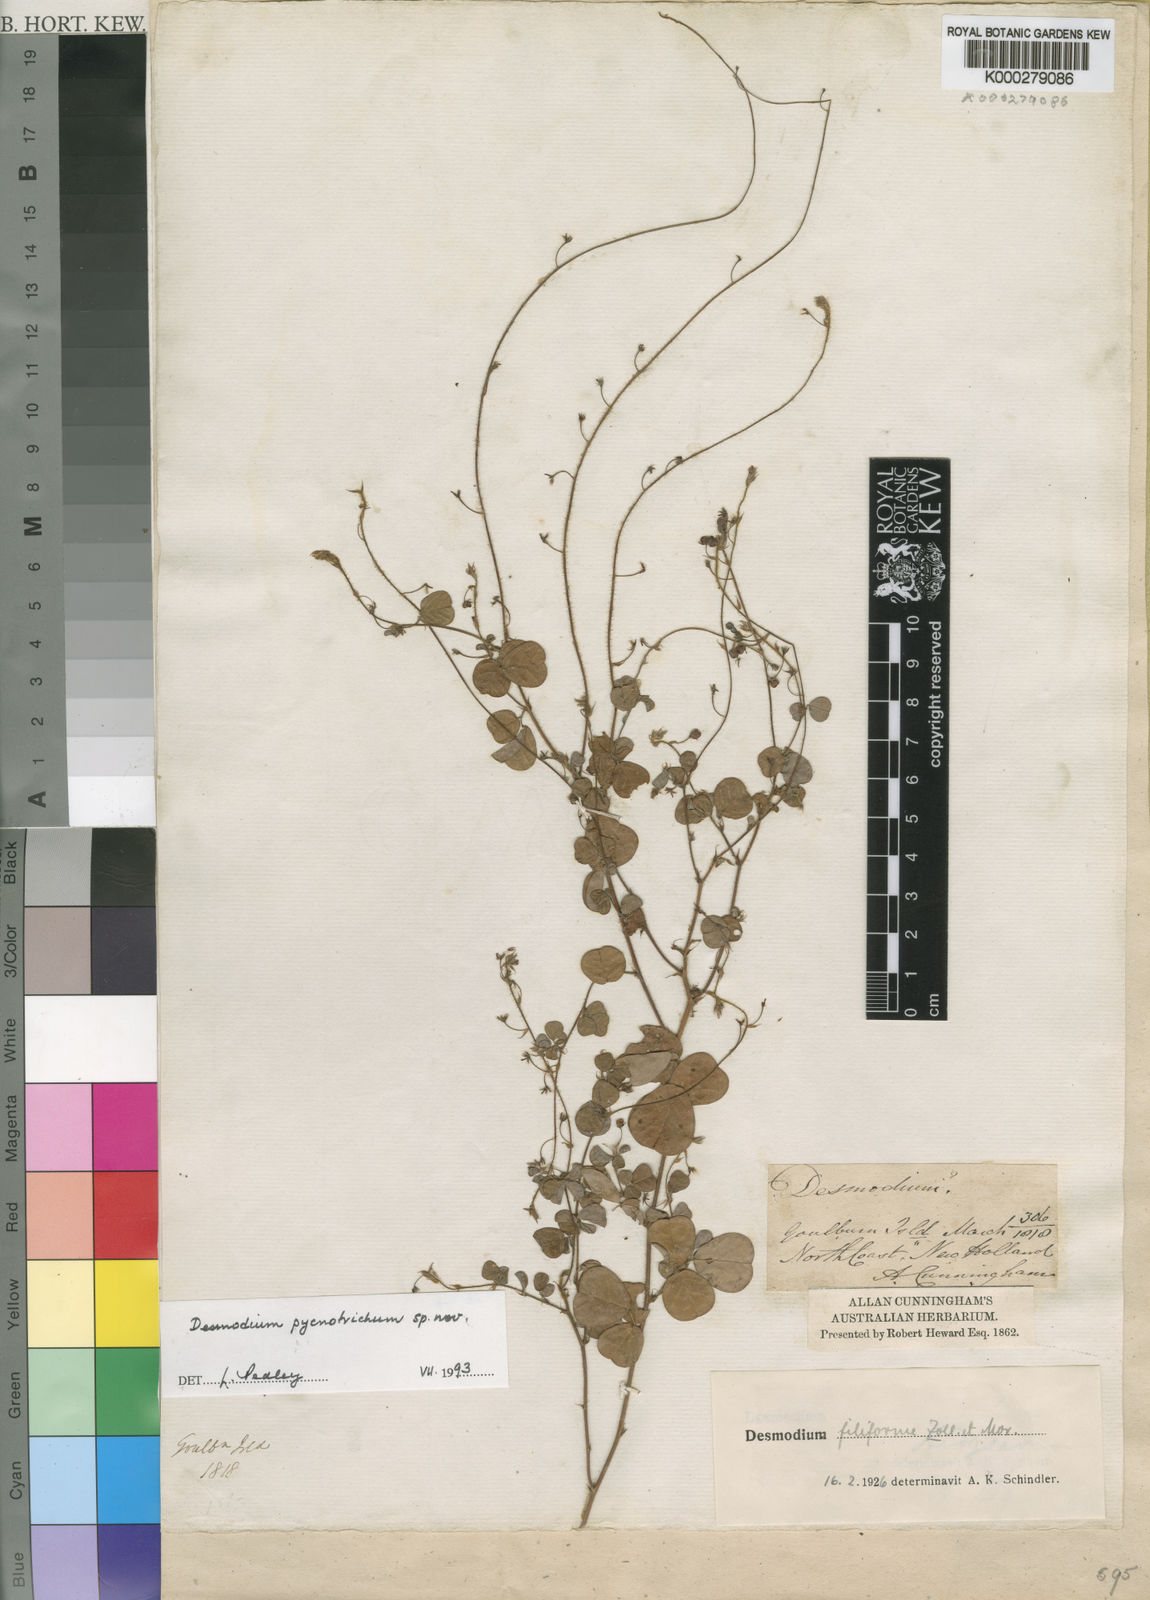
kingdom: Plantae
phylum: Tracheophyta
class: Magnoliopsida
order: Fabales
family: Fabaceae
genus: Grona
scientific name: Grona pycnotricha
